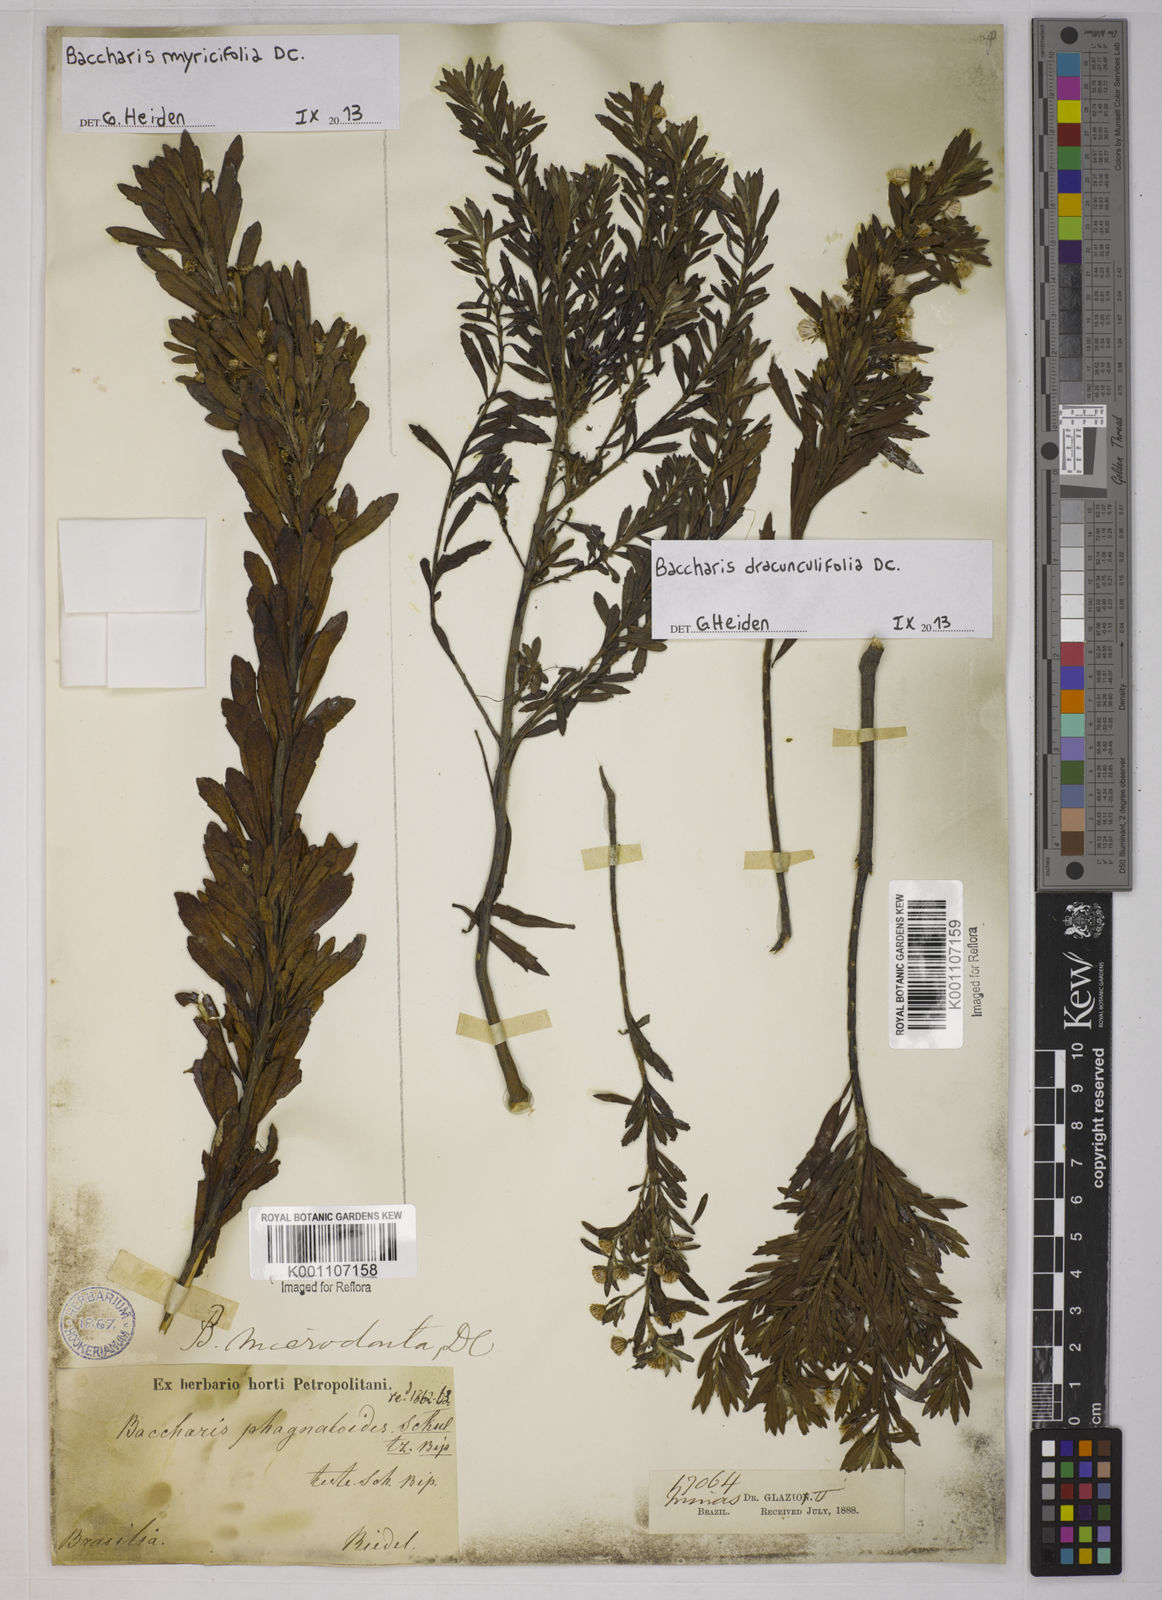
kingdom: Plantae
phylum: Tracheophyta
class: Magnoliopsida
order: Asterales
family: Asteraceae
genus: Baccharis
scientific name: Baccharis myricifolia
